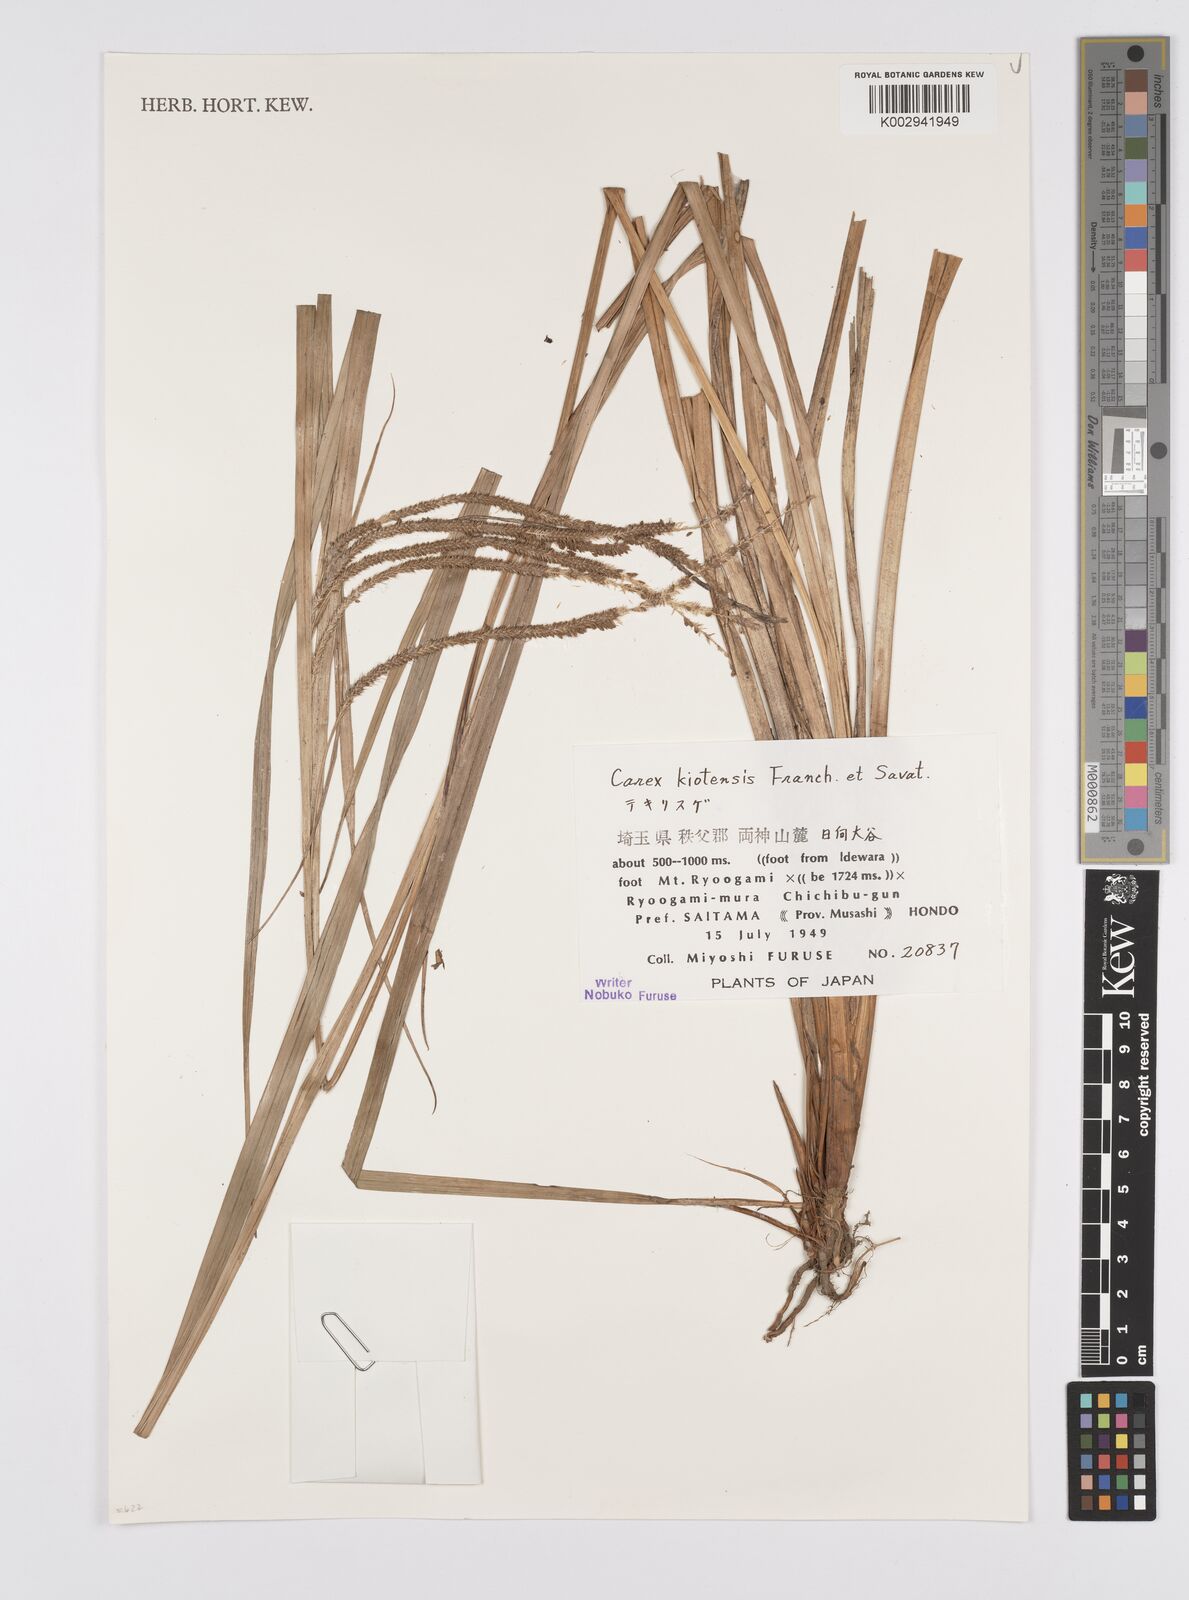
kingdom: Plantae
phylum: Tracheophyta
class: Liliopsida
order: Poales
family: Cyperaceae
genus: Carex
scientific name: Carex nemostachys
